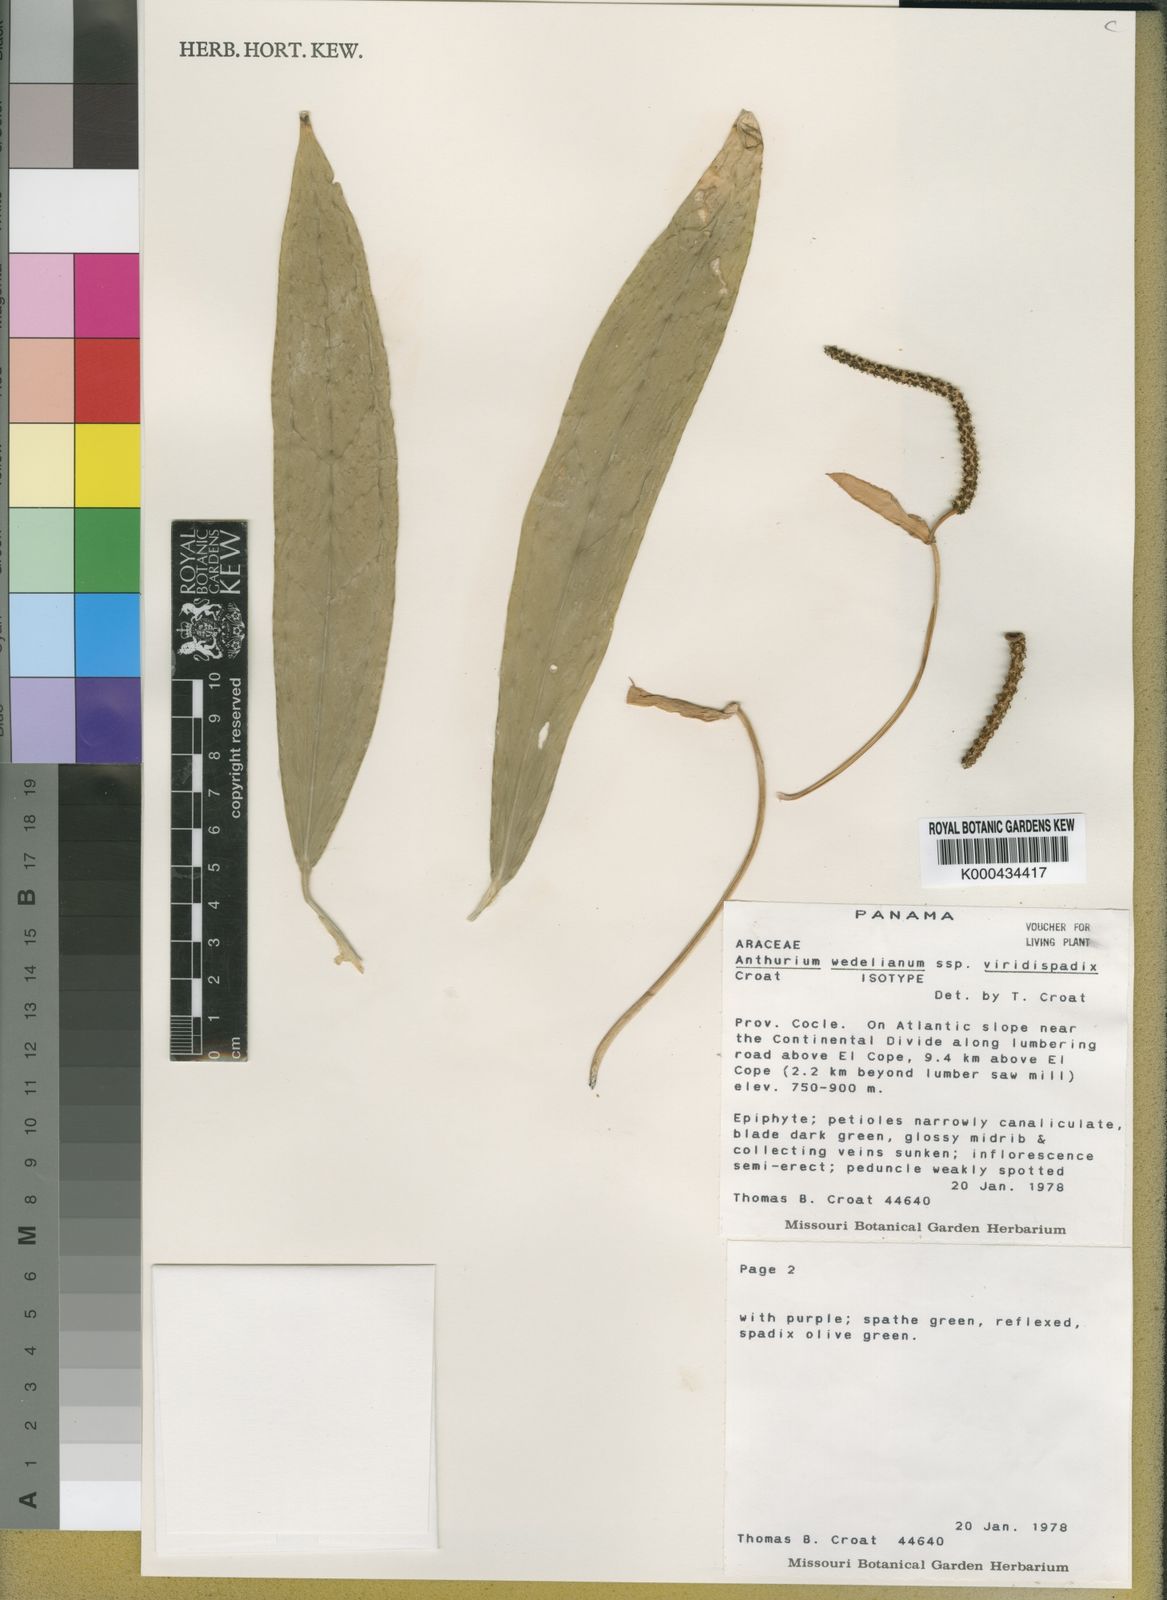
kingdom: Plantae
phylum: Tracheophyta
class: Liliopsida
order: Alismatales
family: Araceae
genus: Anthurium
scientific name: Anthurium wedelianum
